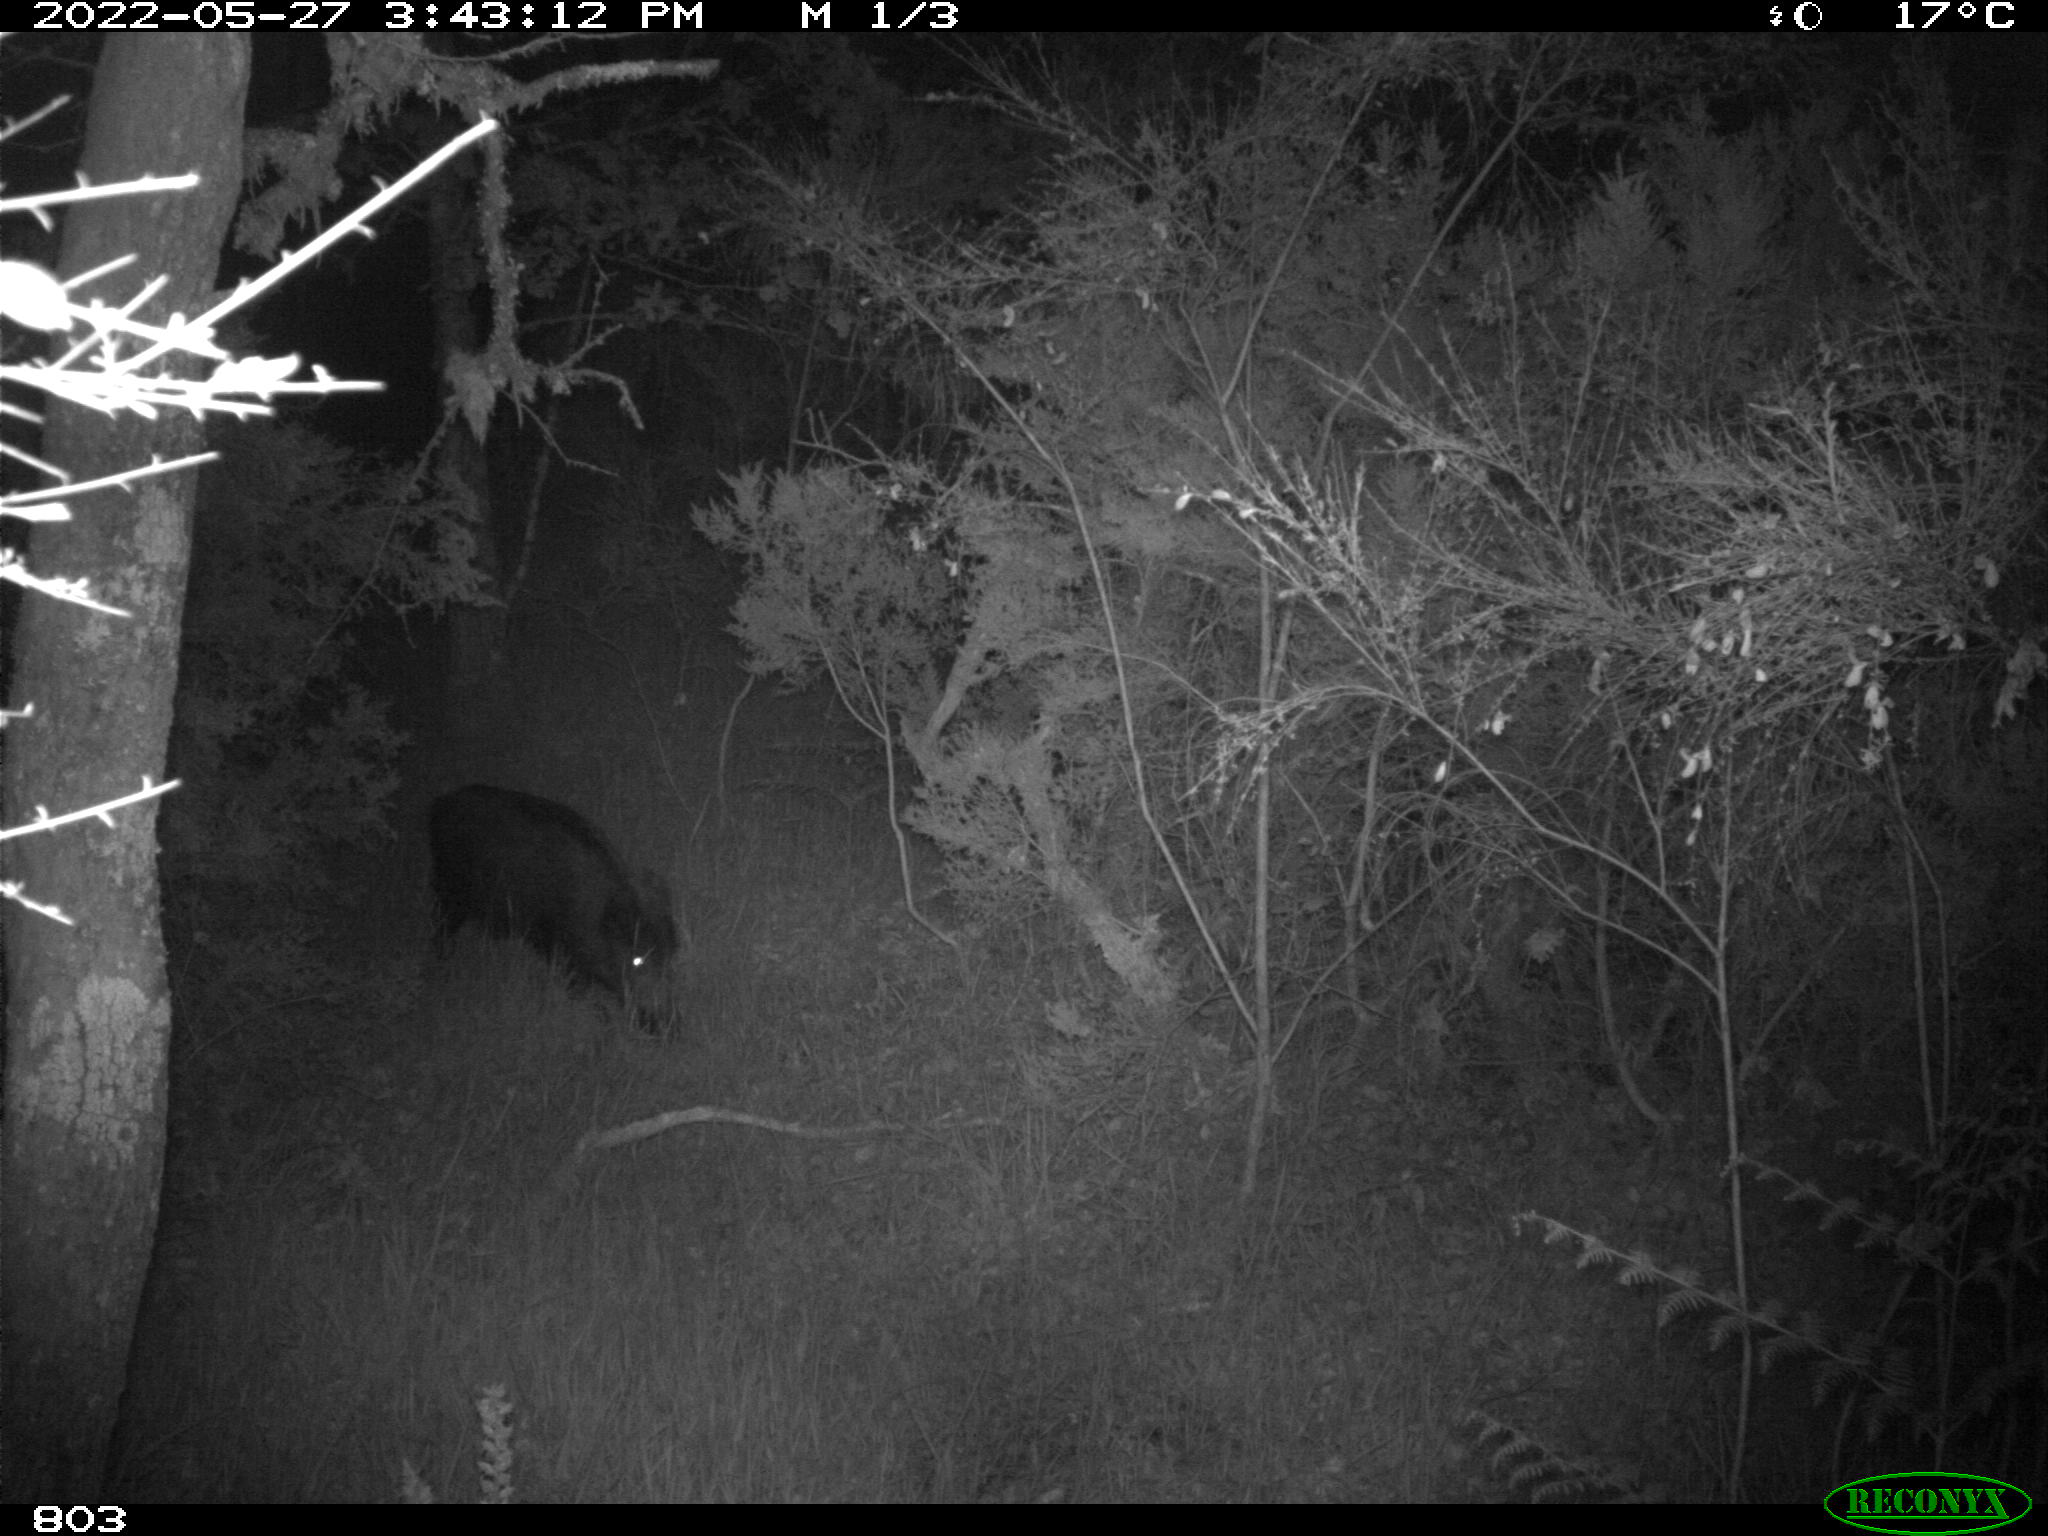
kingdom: Animalia
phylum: Chordata
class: Mammalia
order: Artiodactyla
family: Suidae
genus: Sus
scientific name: Sus scrofa
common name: Wild boar
